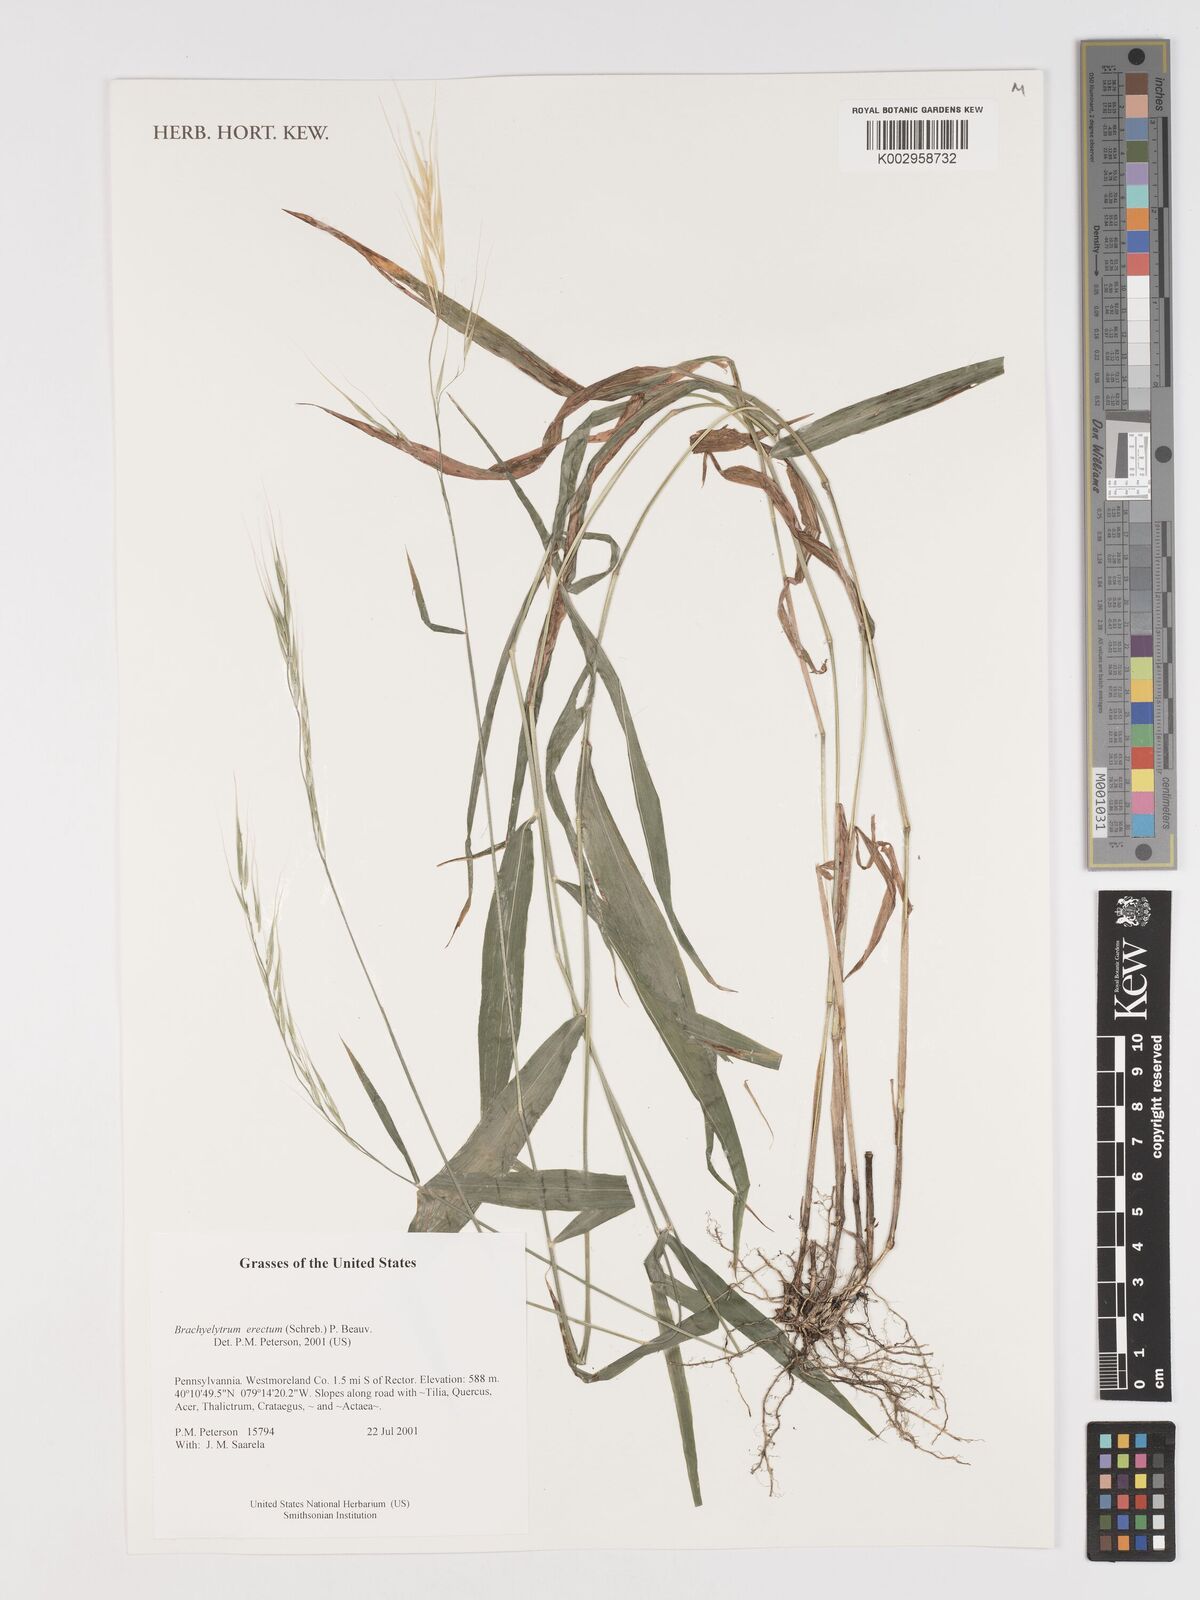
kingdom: Plantae
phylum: Tracheophyta
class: Liliopsida
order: Poales
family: Poaceae
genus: Brachyelytrum
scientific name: Brachyelytrum erectum
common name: Bearded shorthusk
